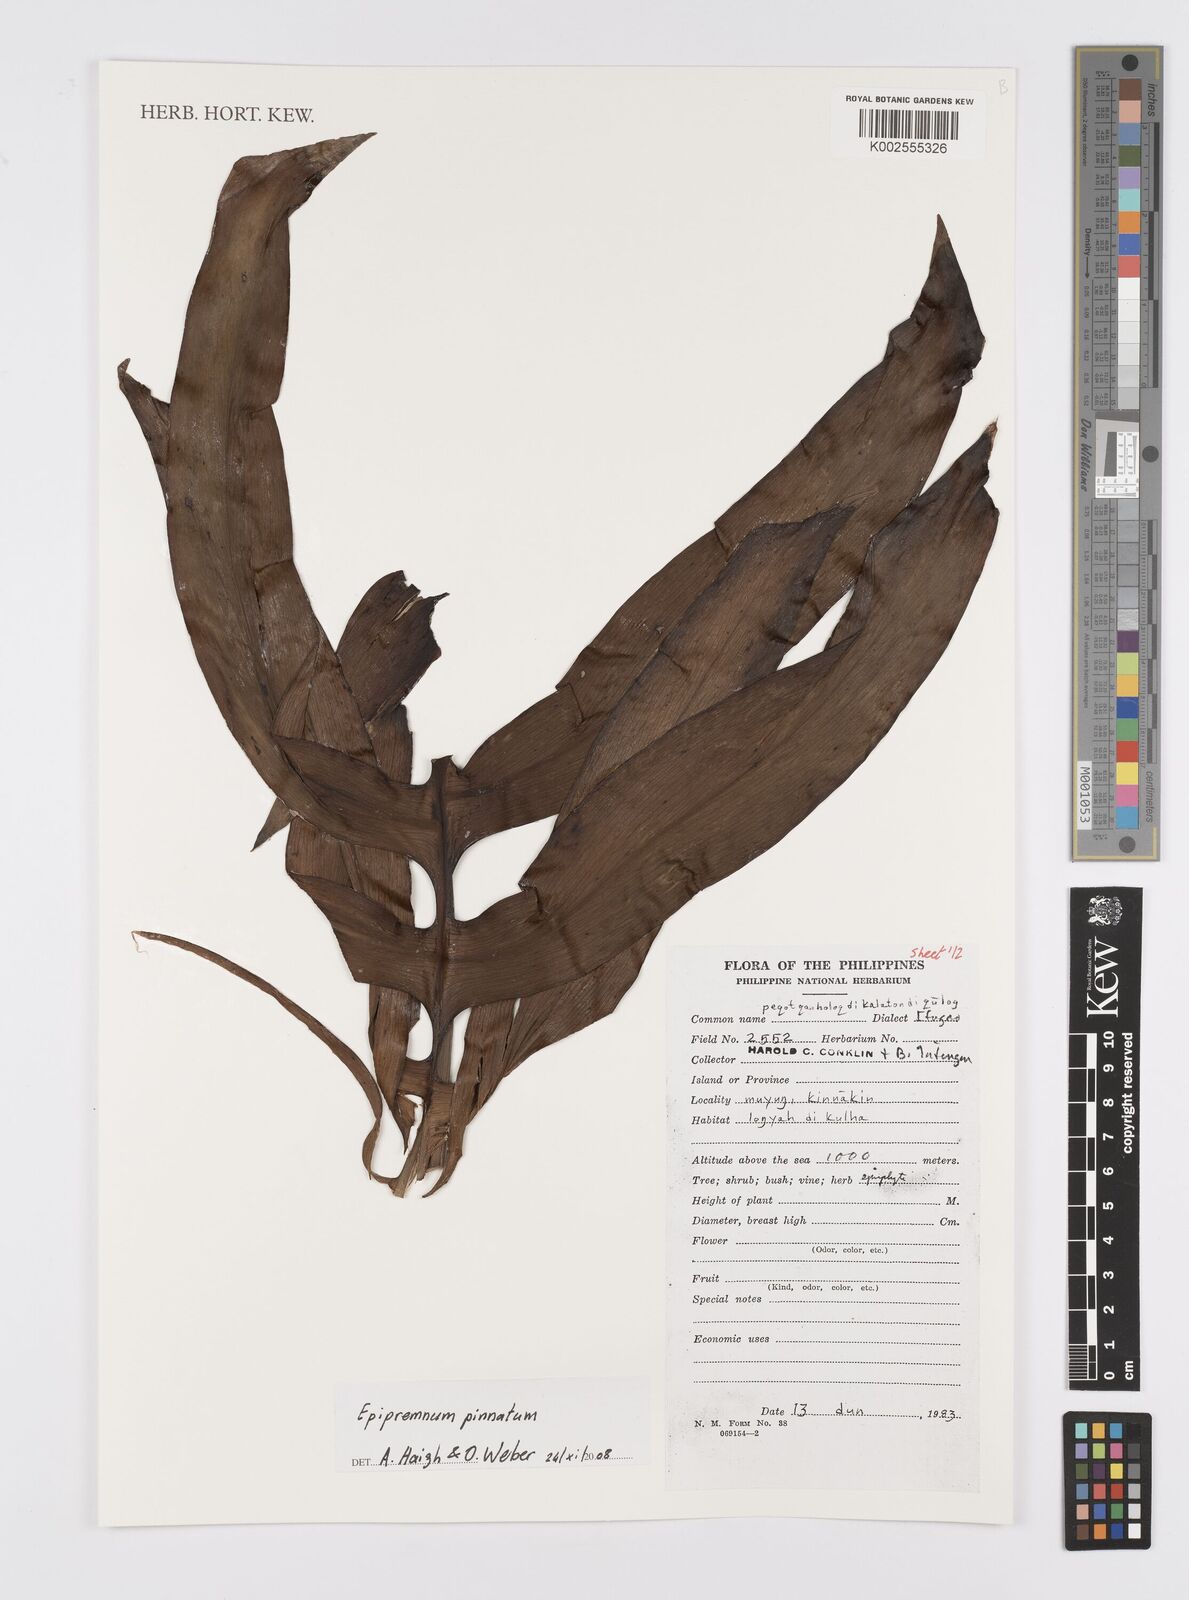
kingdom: Plantae
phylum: Tracheophyta
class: Liliopsida
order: Alismatales
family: Araceae
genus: Epipremnum
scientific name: Epipremnum pinnatum
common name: Centipede tongavine
